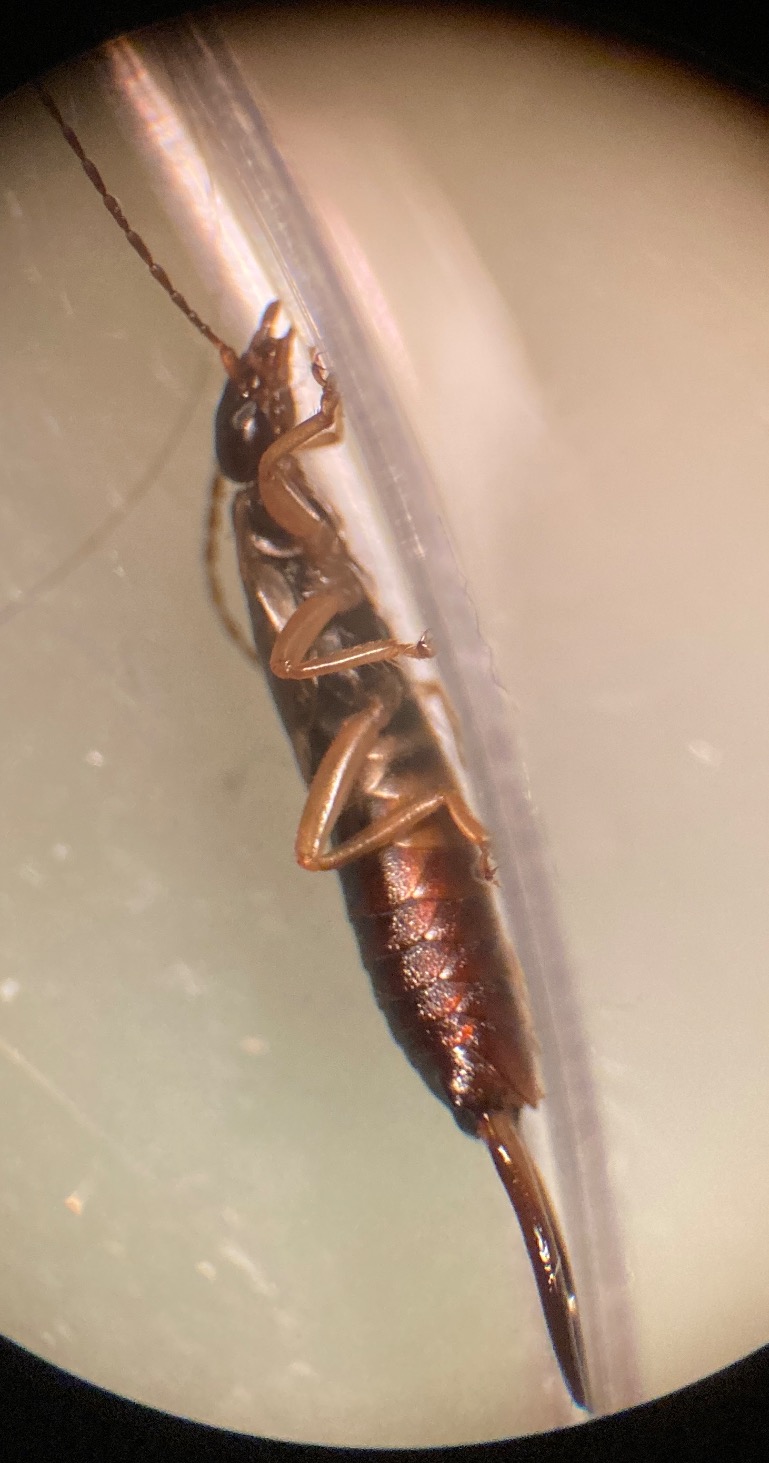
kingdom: Animalia
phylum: Arthropoda
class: Insecta
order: Dermaptera
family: Forficulidae
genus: Forficula
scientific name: Forficula auricularia
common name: Almindelig ørentvist
